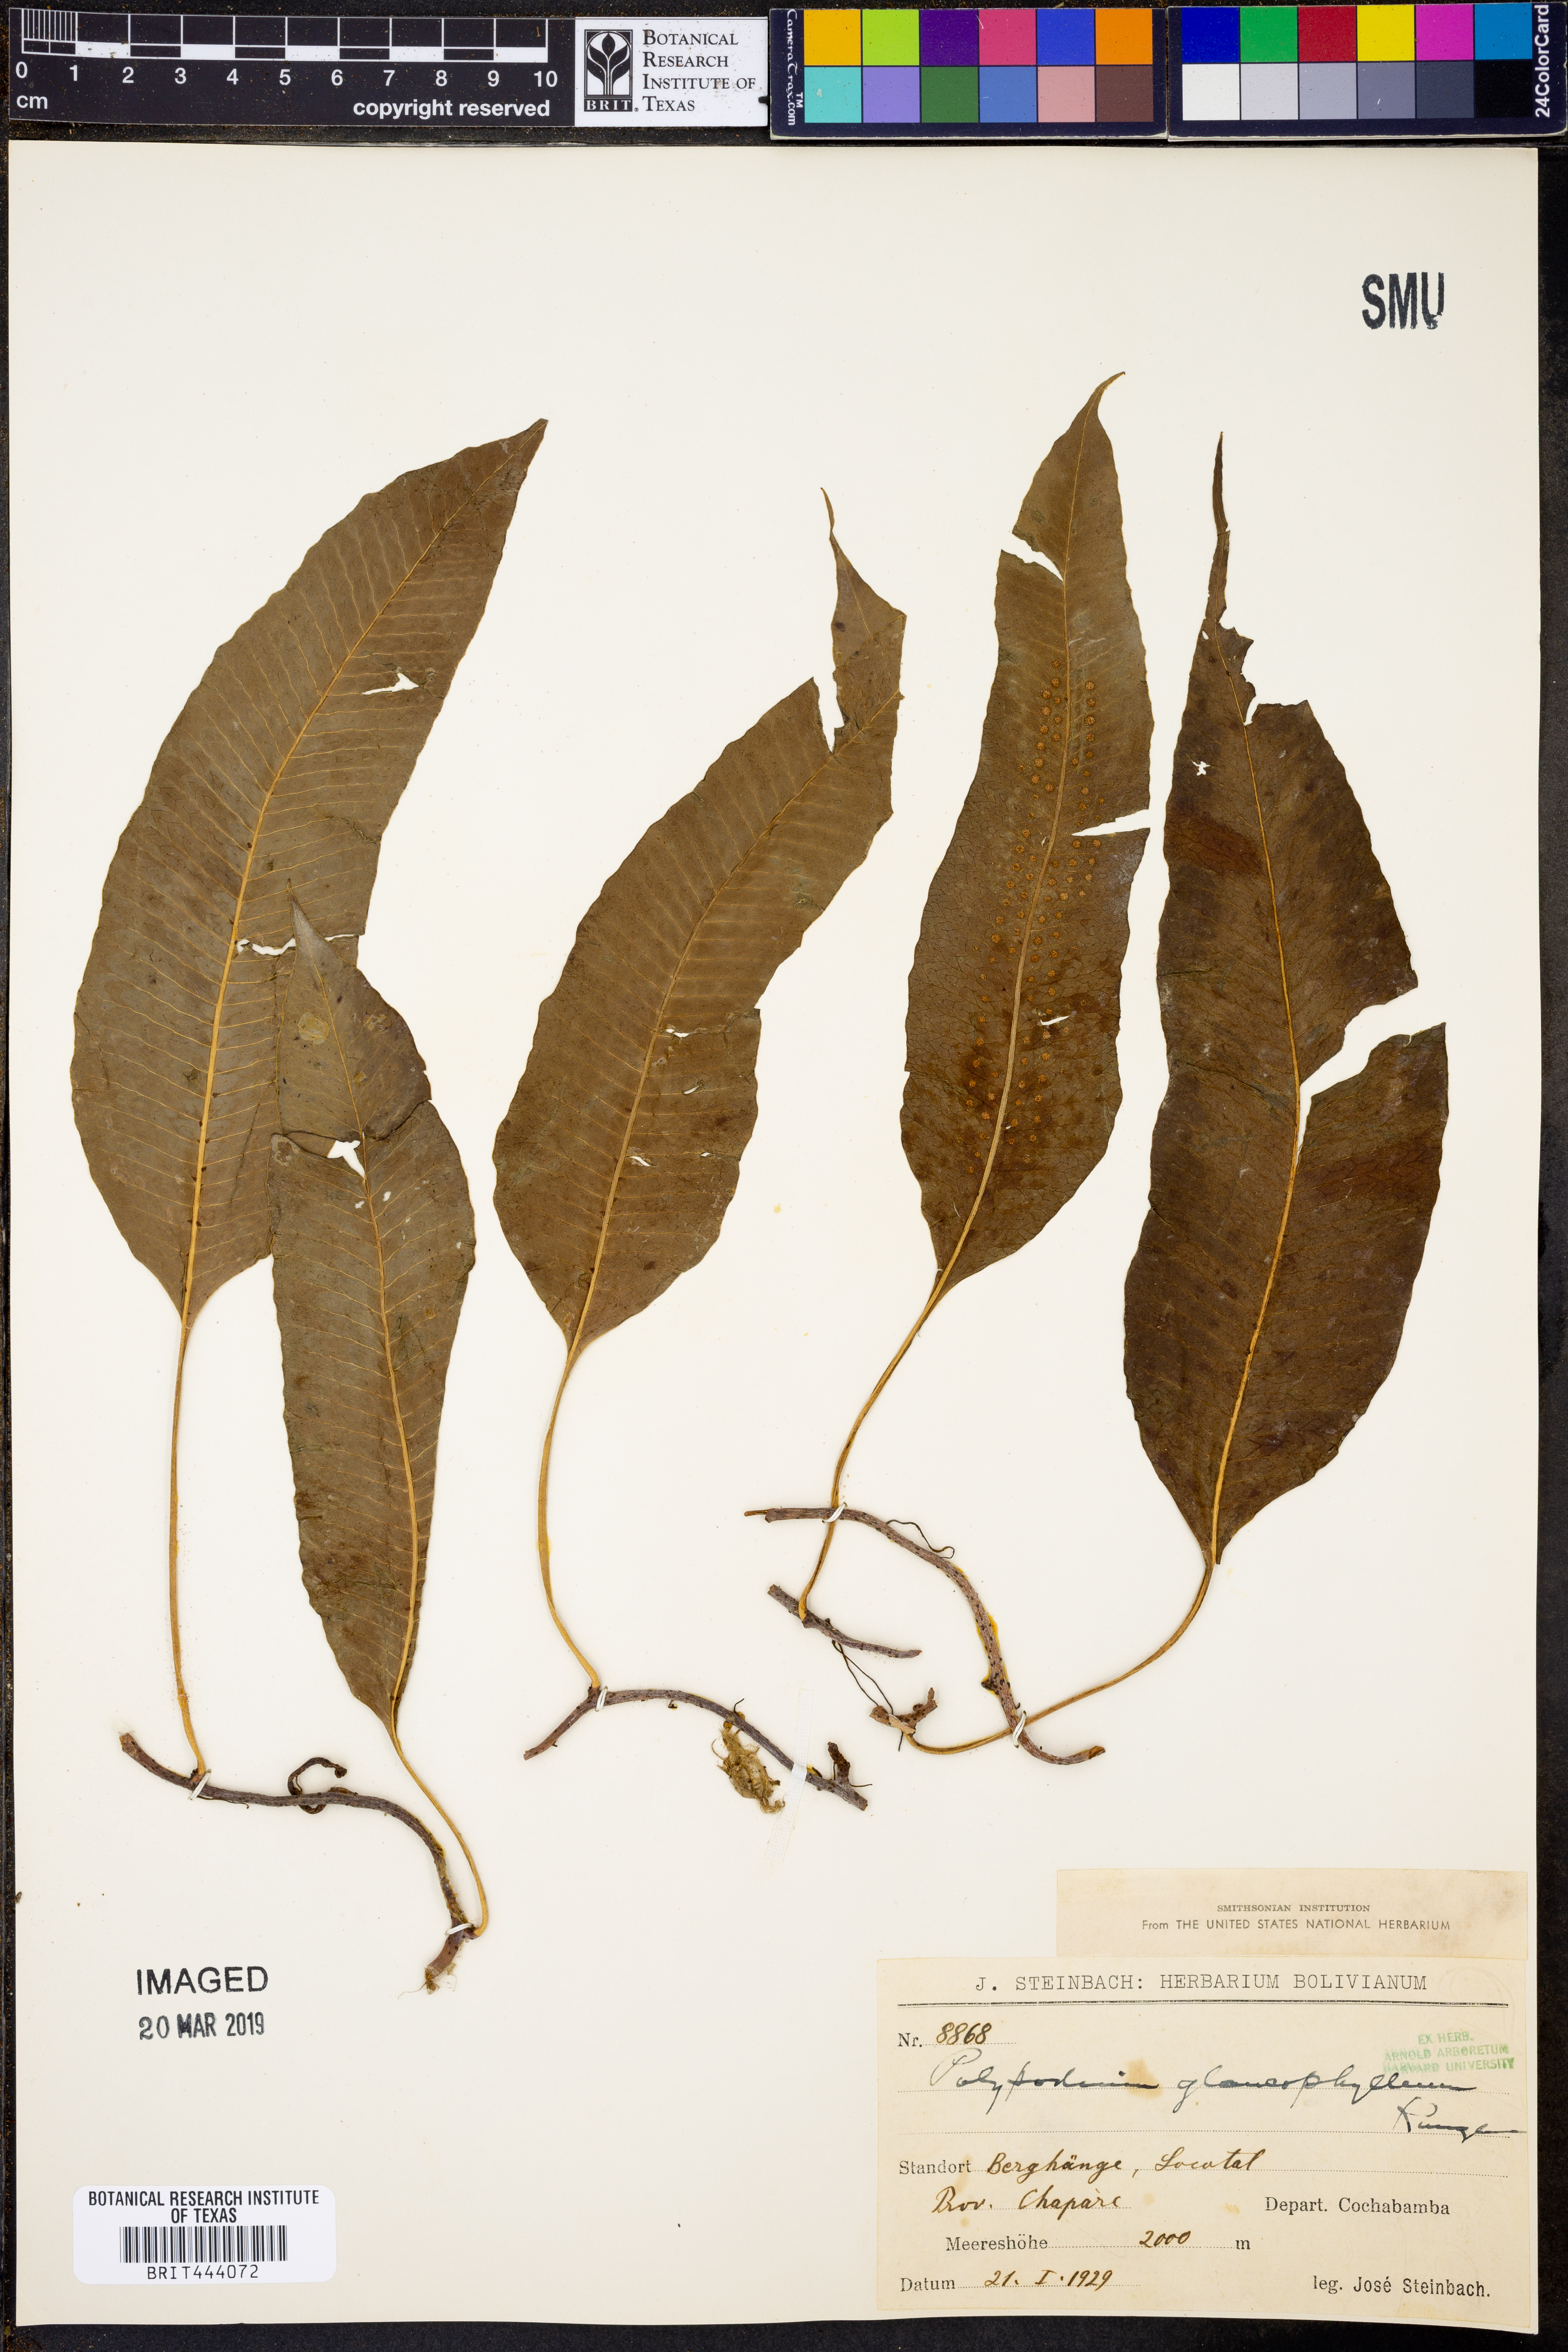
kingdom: Plantae
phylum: Tracheophyta
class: Polypodiopsida
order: Polypodiales
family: Polypodiaceae
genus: Polypodium
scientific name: Polypodium glaucophyllum
